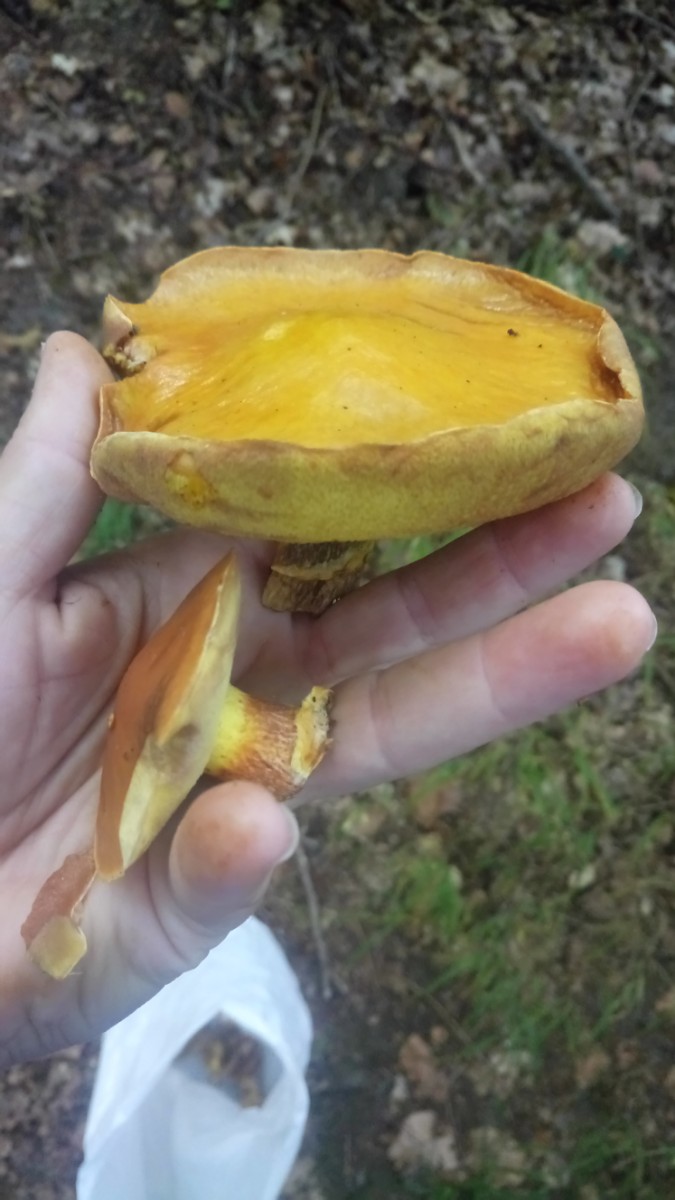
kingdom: Fungi
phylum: Basidiomycota
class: Agaricomycetes
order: Boletales
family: Suillaceae
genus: Suillus
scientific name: Suillus grevillei
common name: lærke-slimrørhat
